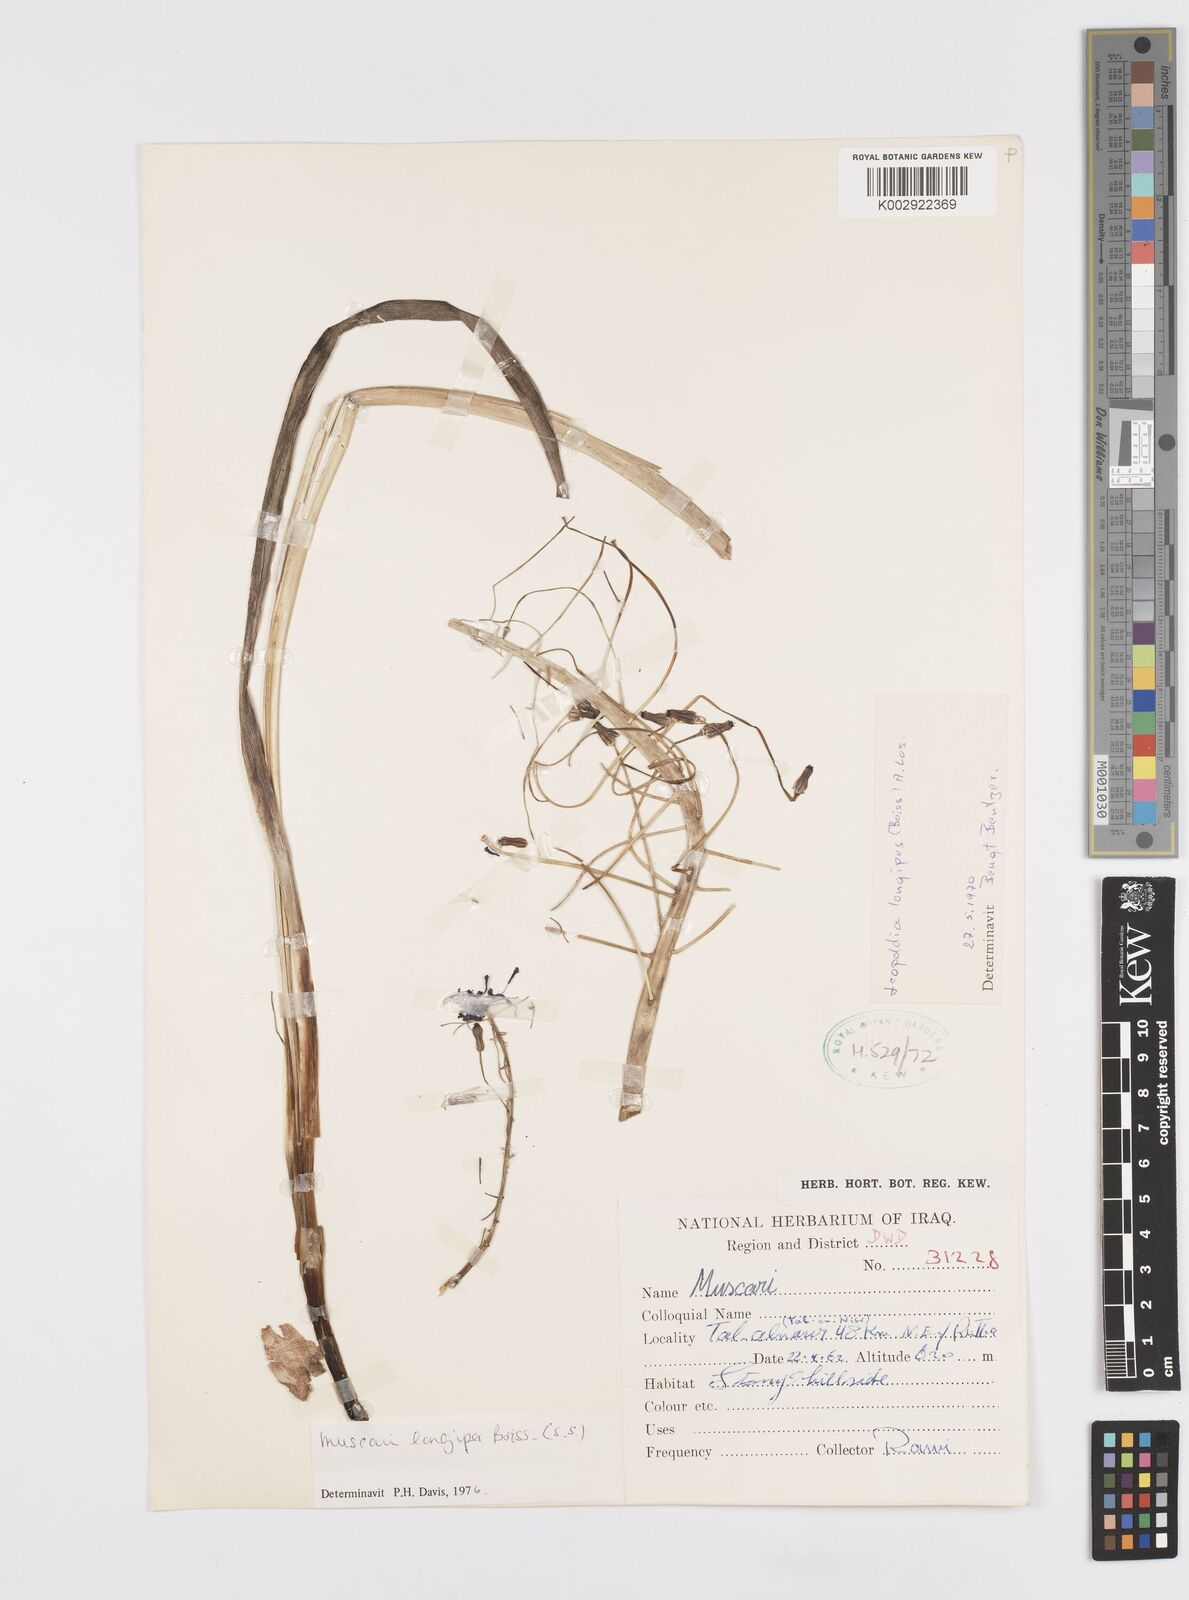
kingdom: Plantae
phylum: Tracheophyta
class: Liliopsida
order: Asparagales
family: Asparagaceae
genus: Muscari
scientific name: Muscari longipes
